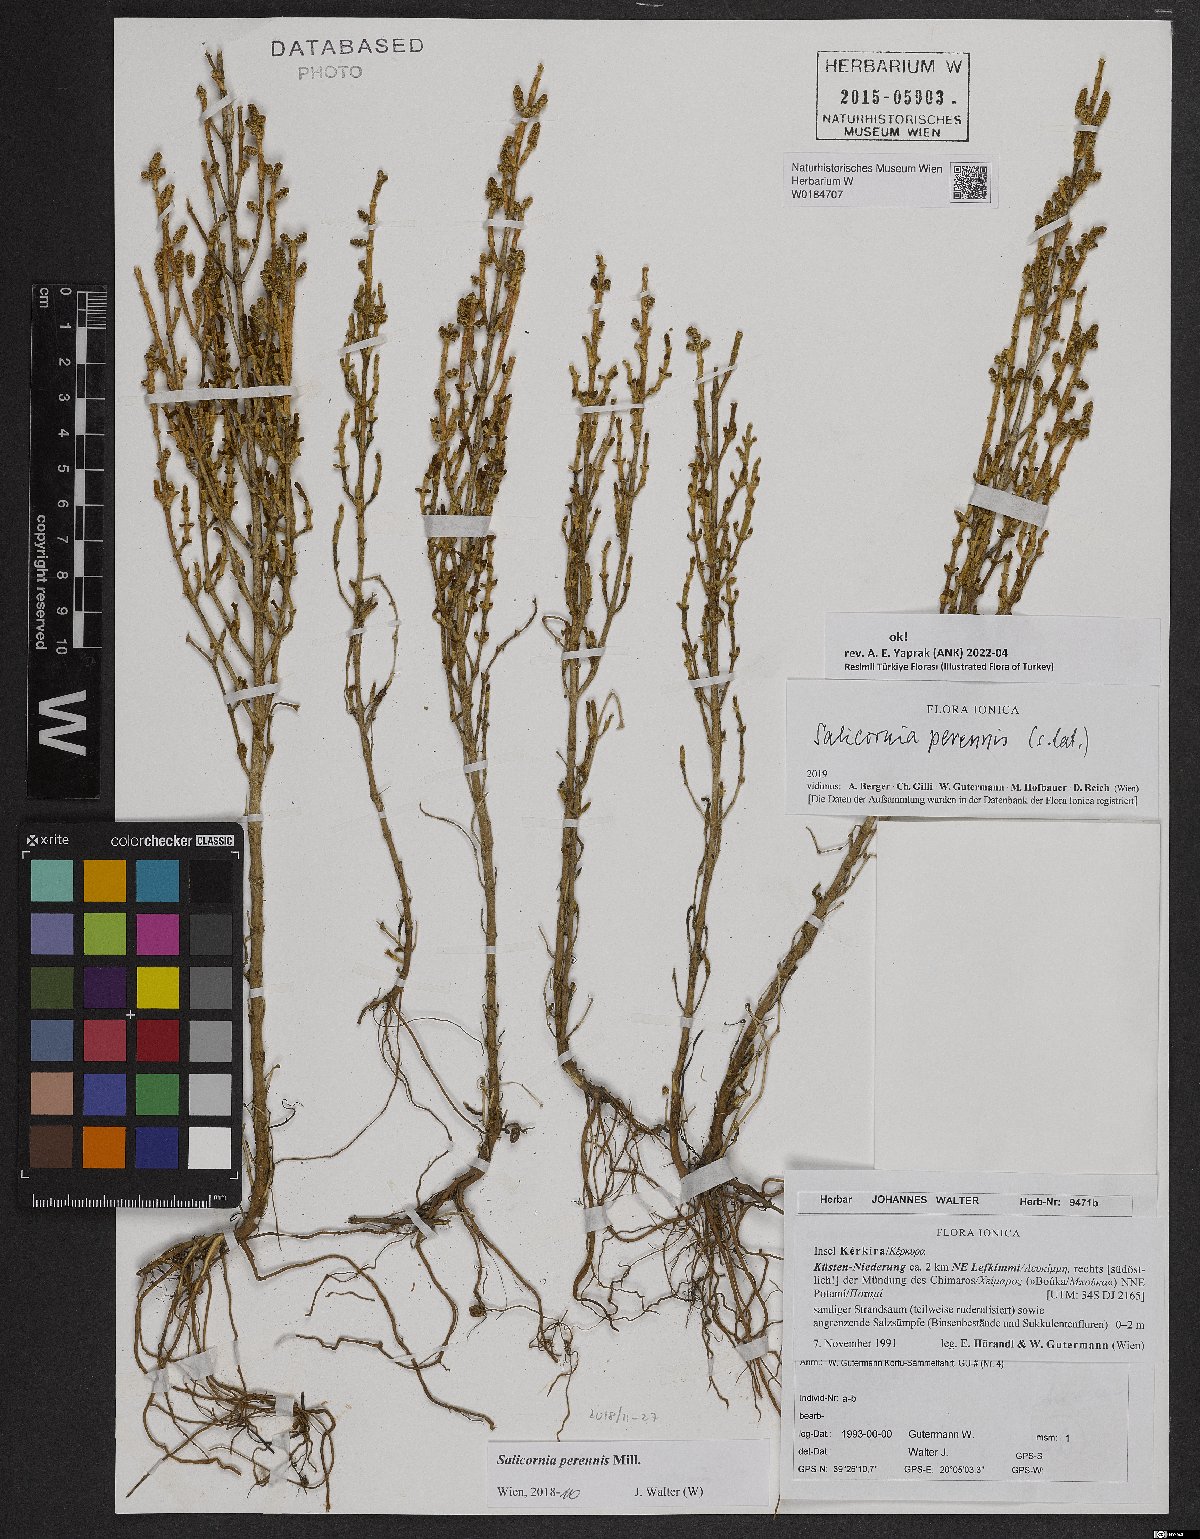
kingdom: Plantae
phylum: Tracheophyta
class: Magnoliopsida
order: Caryophyllales
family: Amaranthaceae
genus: Salicornia
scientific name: Salicornia perennis
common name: Chicken claws
